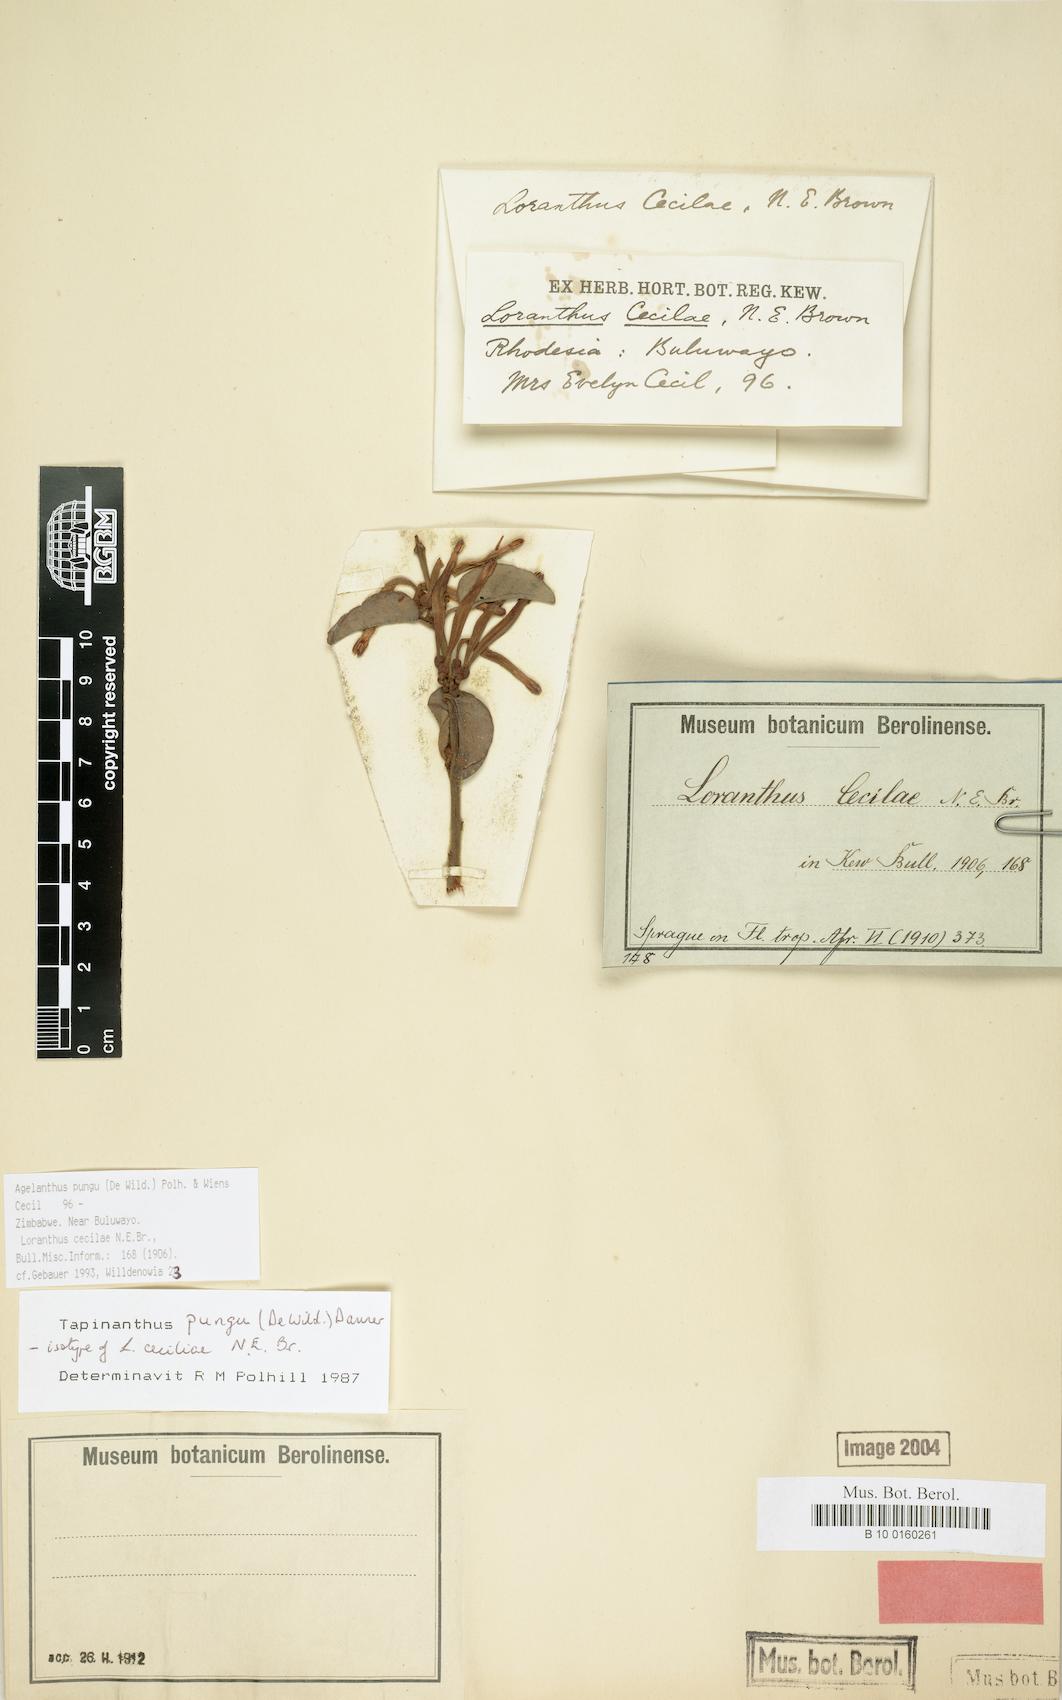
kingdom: Plantae
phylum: Tracheophyta
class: Magnoliopsida
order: Santalales
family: Loranthaceae
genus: Agelanthus
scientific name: Agelanthus pungu
